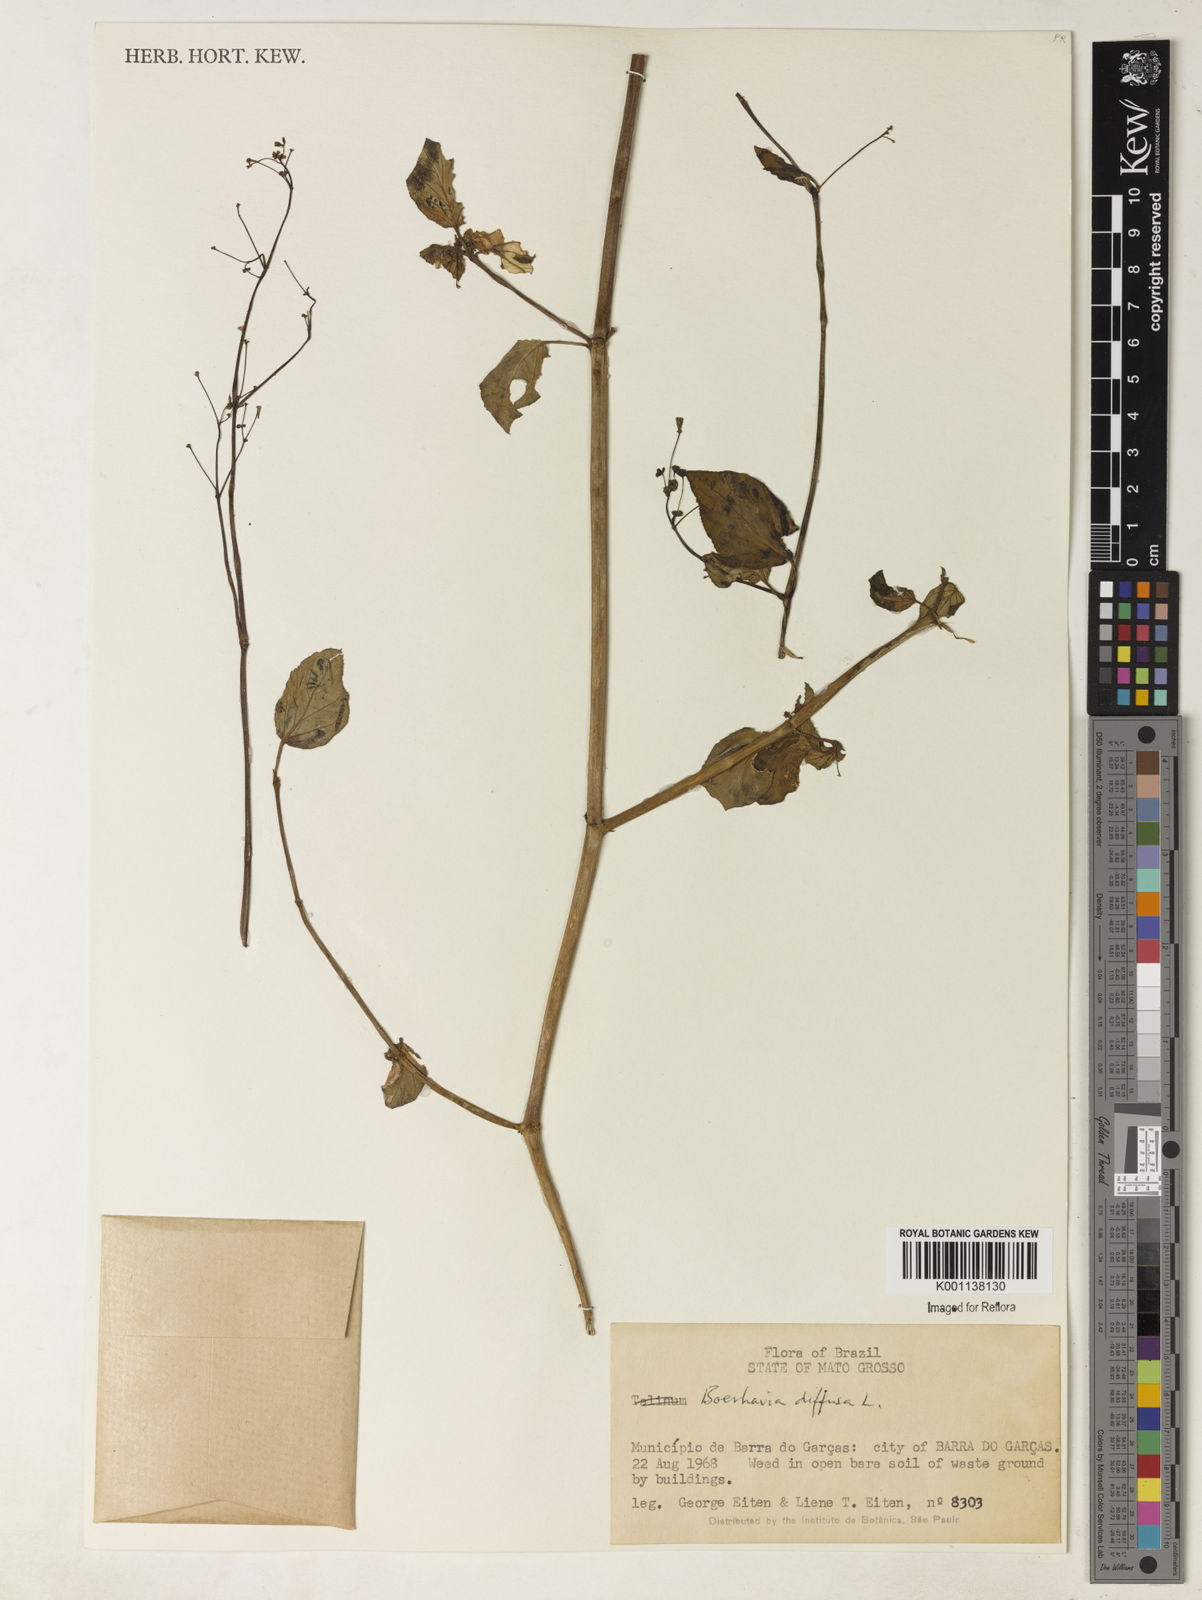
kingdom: Plantae
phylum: Tracheophyta
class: Magnoliopsida
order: Caryophyllales
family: Nyctaginaceae
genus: Boerhavia
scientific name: Boerhavia diffusa
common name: Red spiderling
